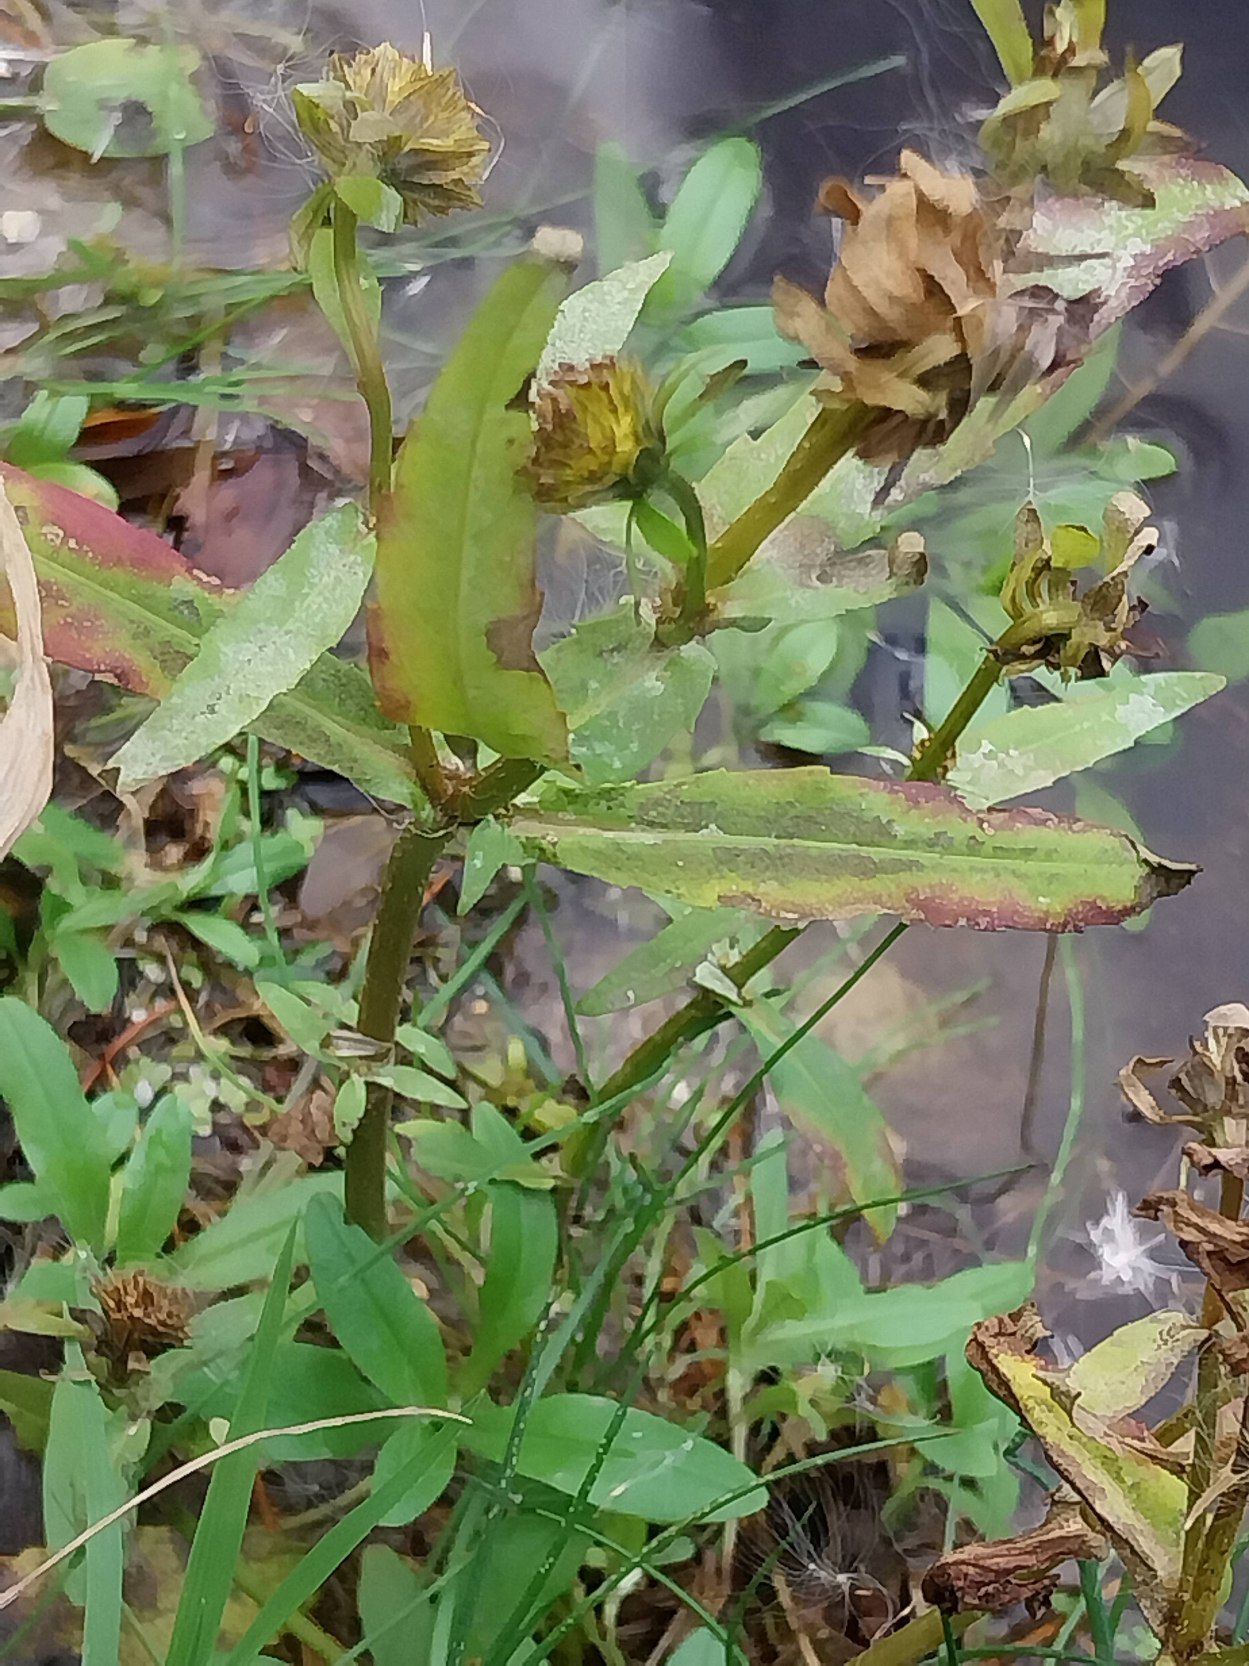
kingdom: Plantae
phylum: Tracheophyta
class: Magnoliopsida
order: Asterales
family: Asteraceae
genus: Bidens
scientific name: Bidens cernua
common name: Nikkende brøndsel
